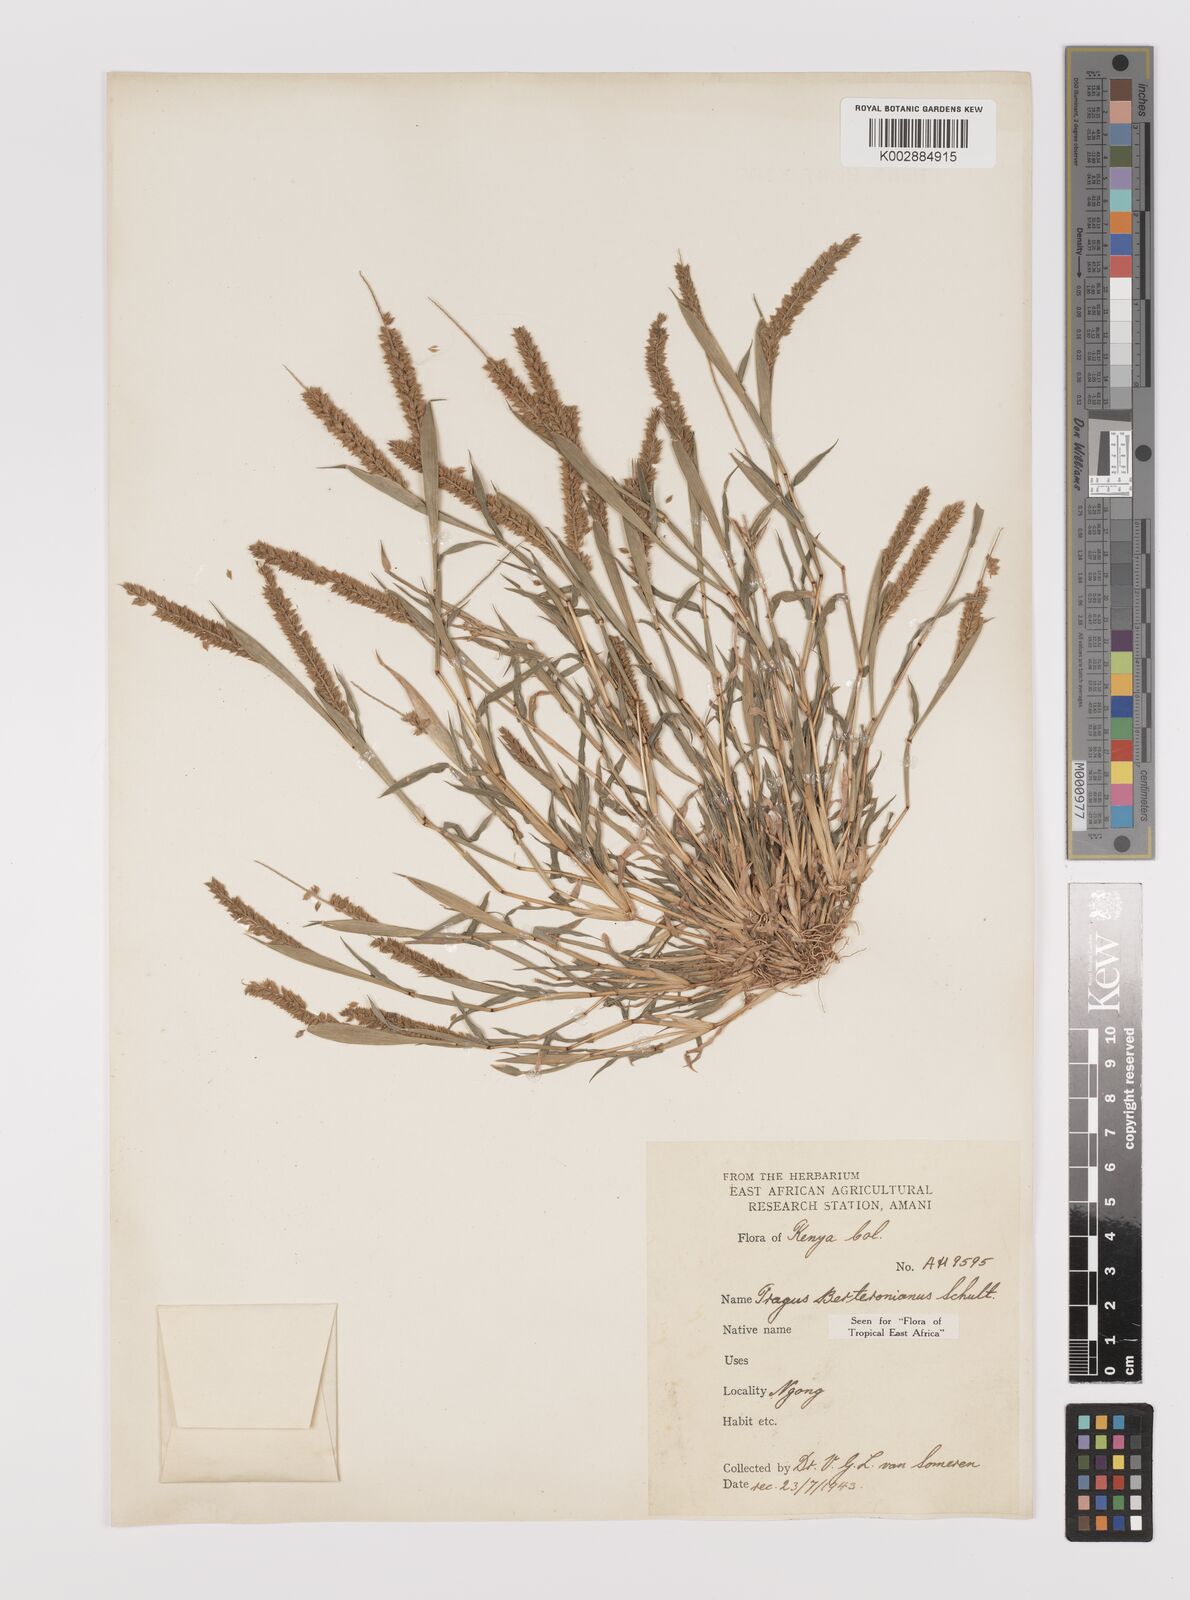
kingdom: Plantae
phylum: Tracheophyta
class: Liliopsida
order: Poales
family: Poaceae
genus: Tragus
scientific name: Tragus berteronianus
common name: African bur-grass
